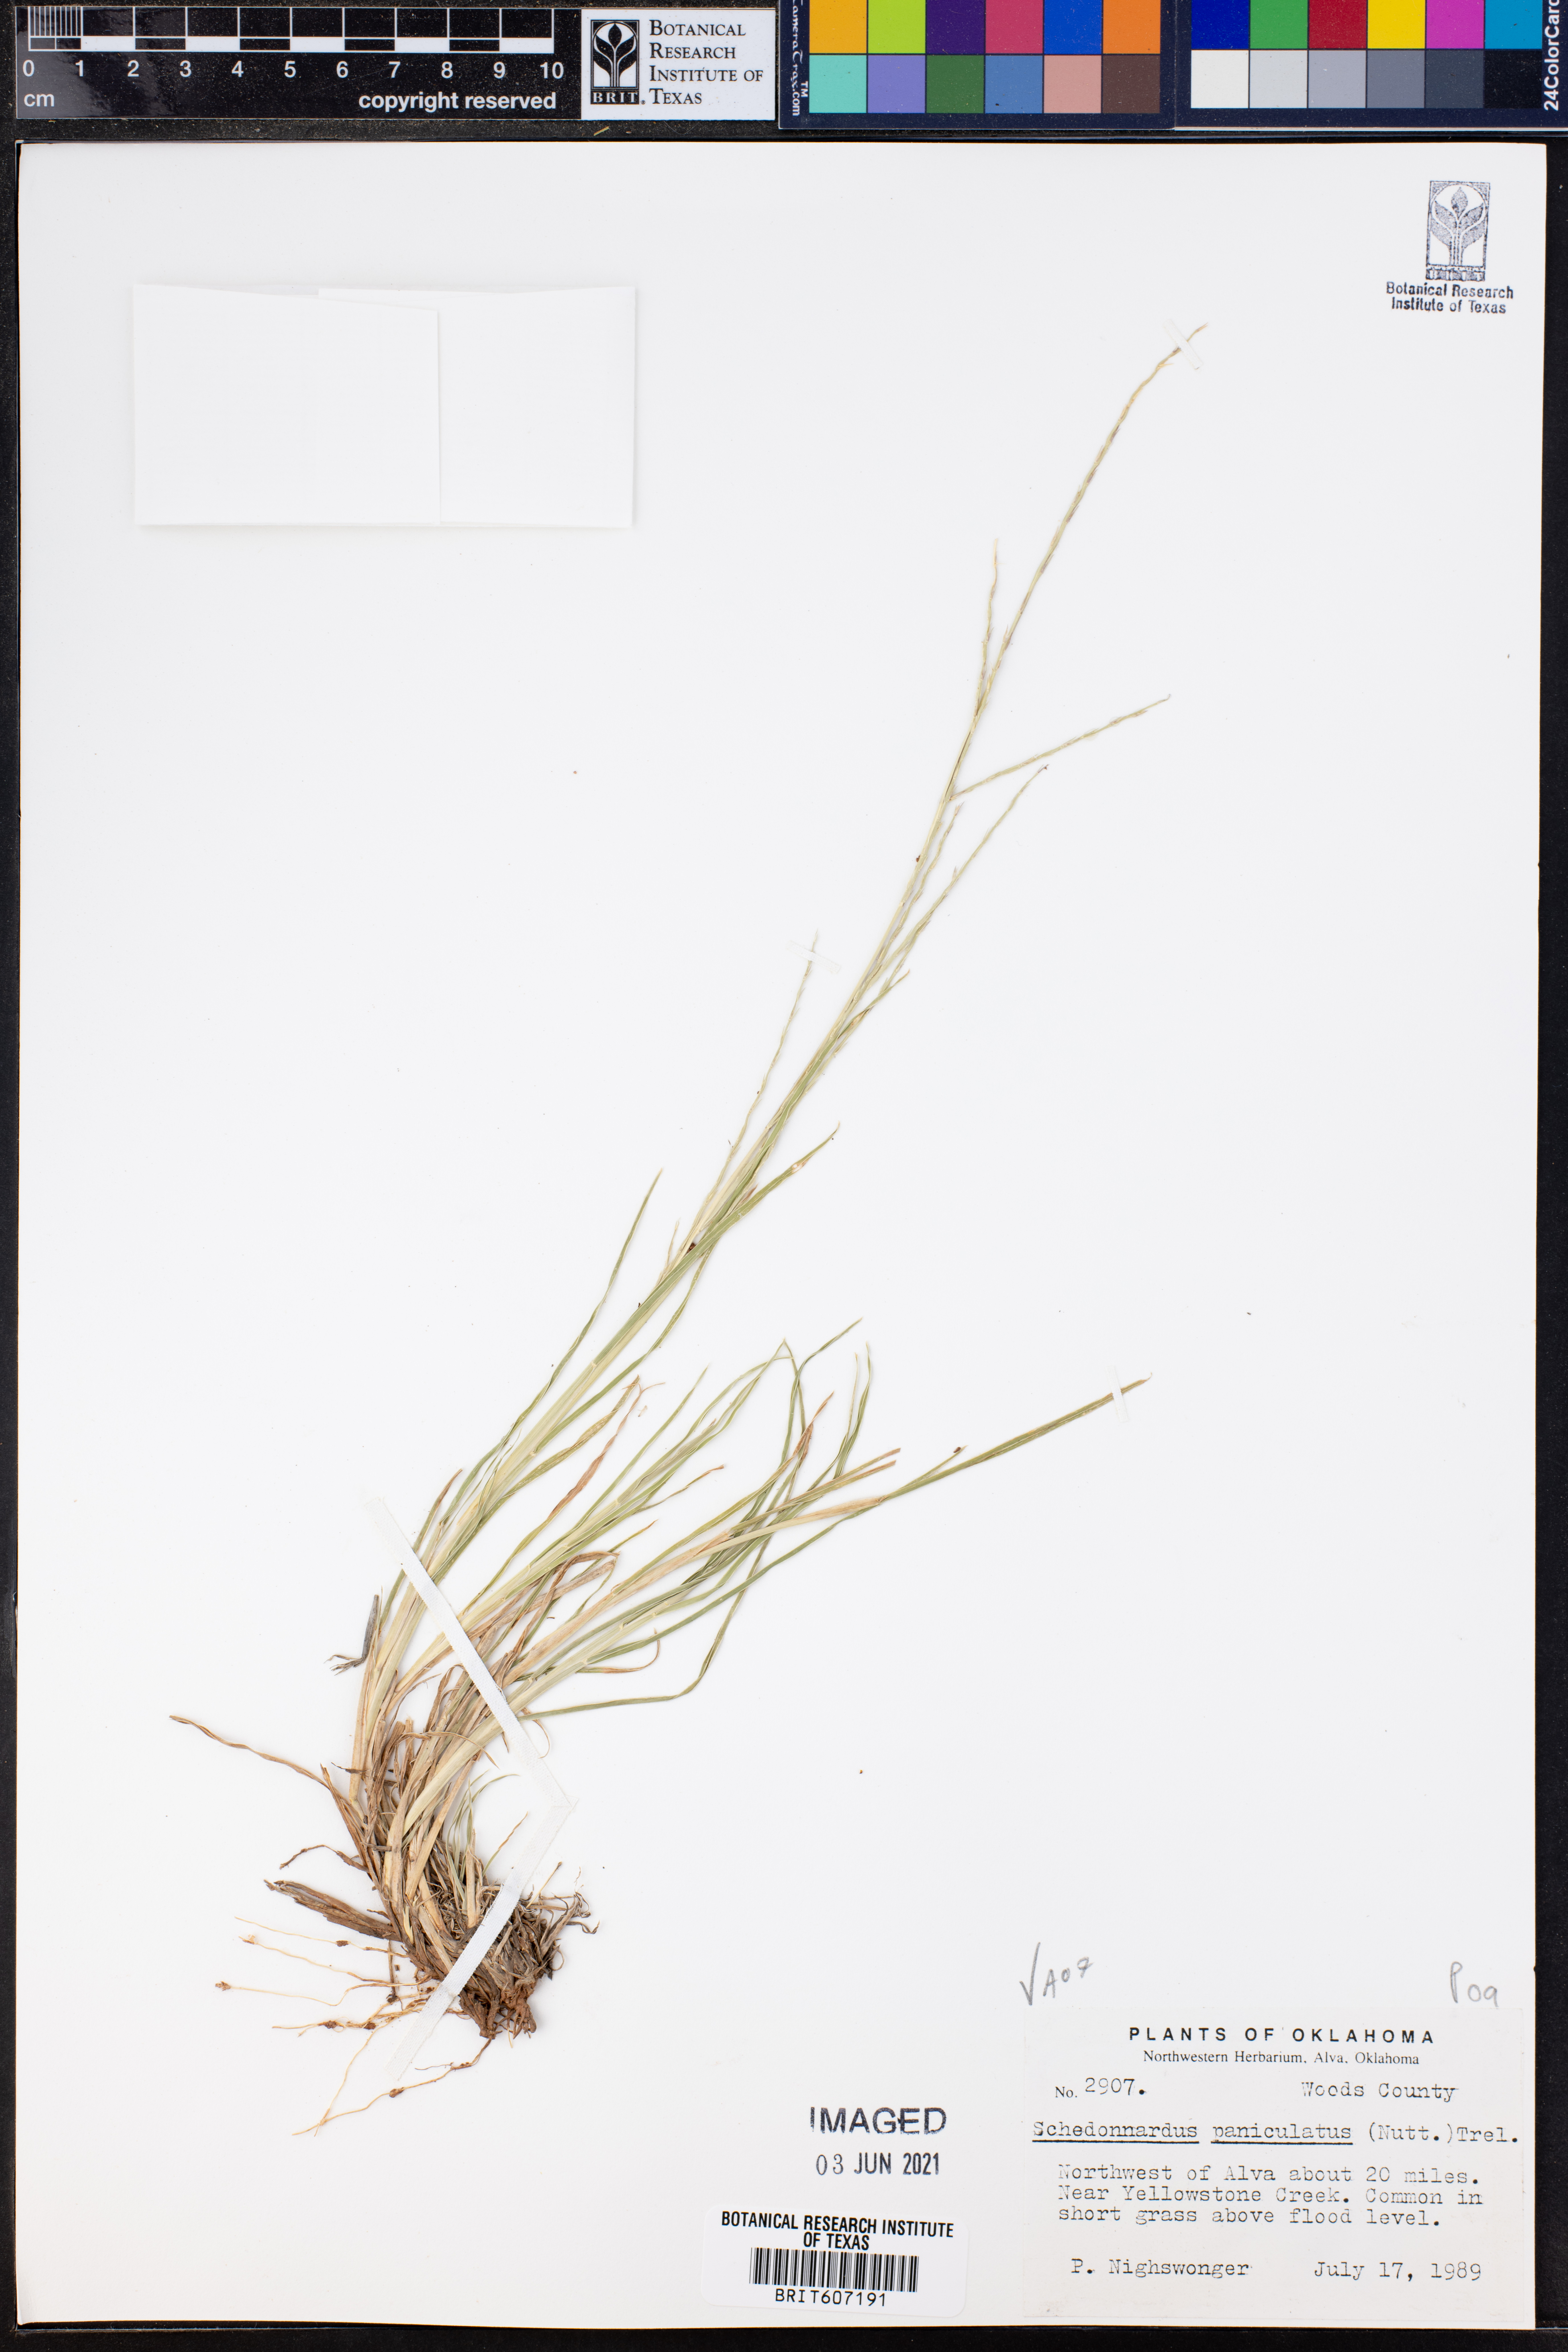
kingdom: Plantae
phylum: Tracheophyta
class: Liliopsida
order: Poales
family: Poaceae
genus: Muhlenbergia
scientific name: Muhlenbergia paniculata
